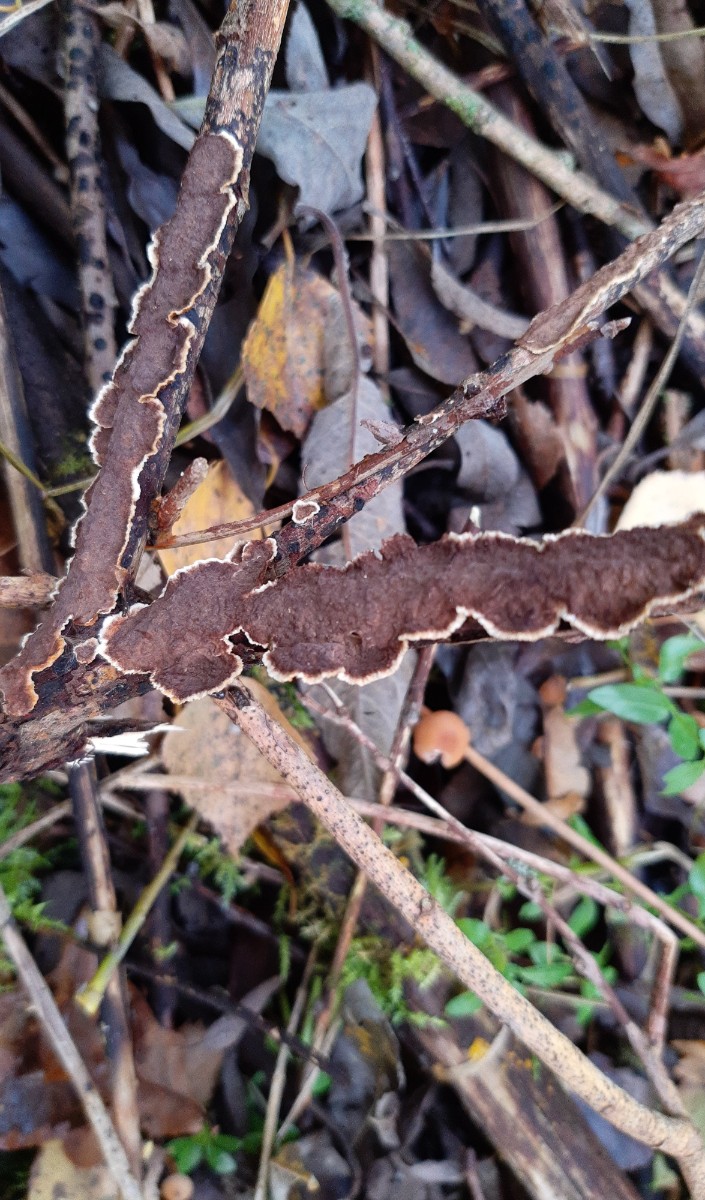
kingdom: Fungi
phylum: Basidiomycota
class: Agaricomycetes
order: Hymenochaetales
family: Hymenochaetaceae
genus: Hydnoporia
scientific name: Hydnoporia tabacina
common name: tobaksbrun ruslædersvamp
